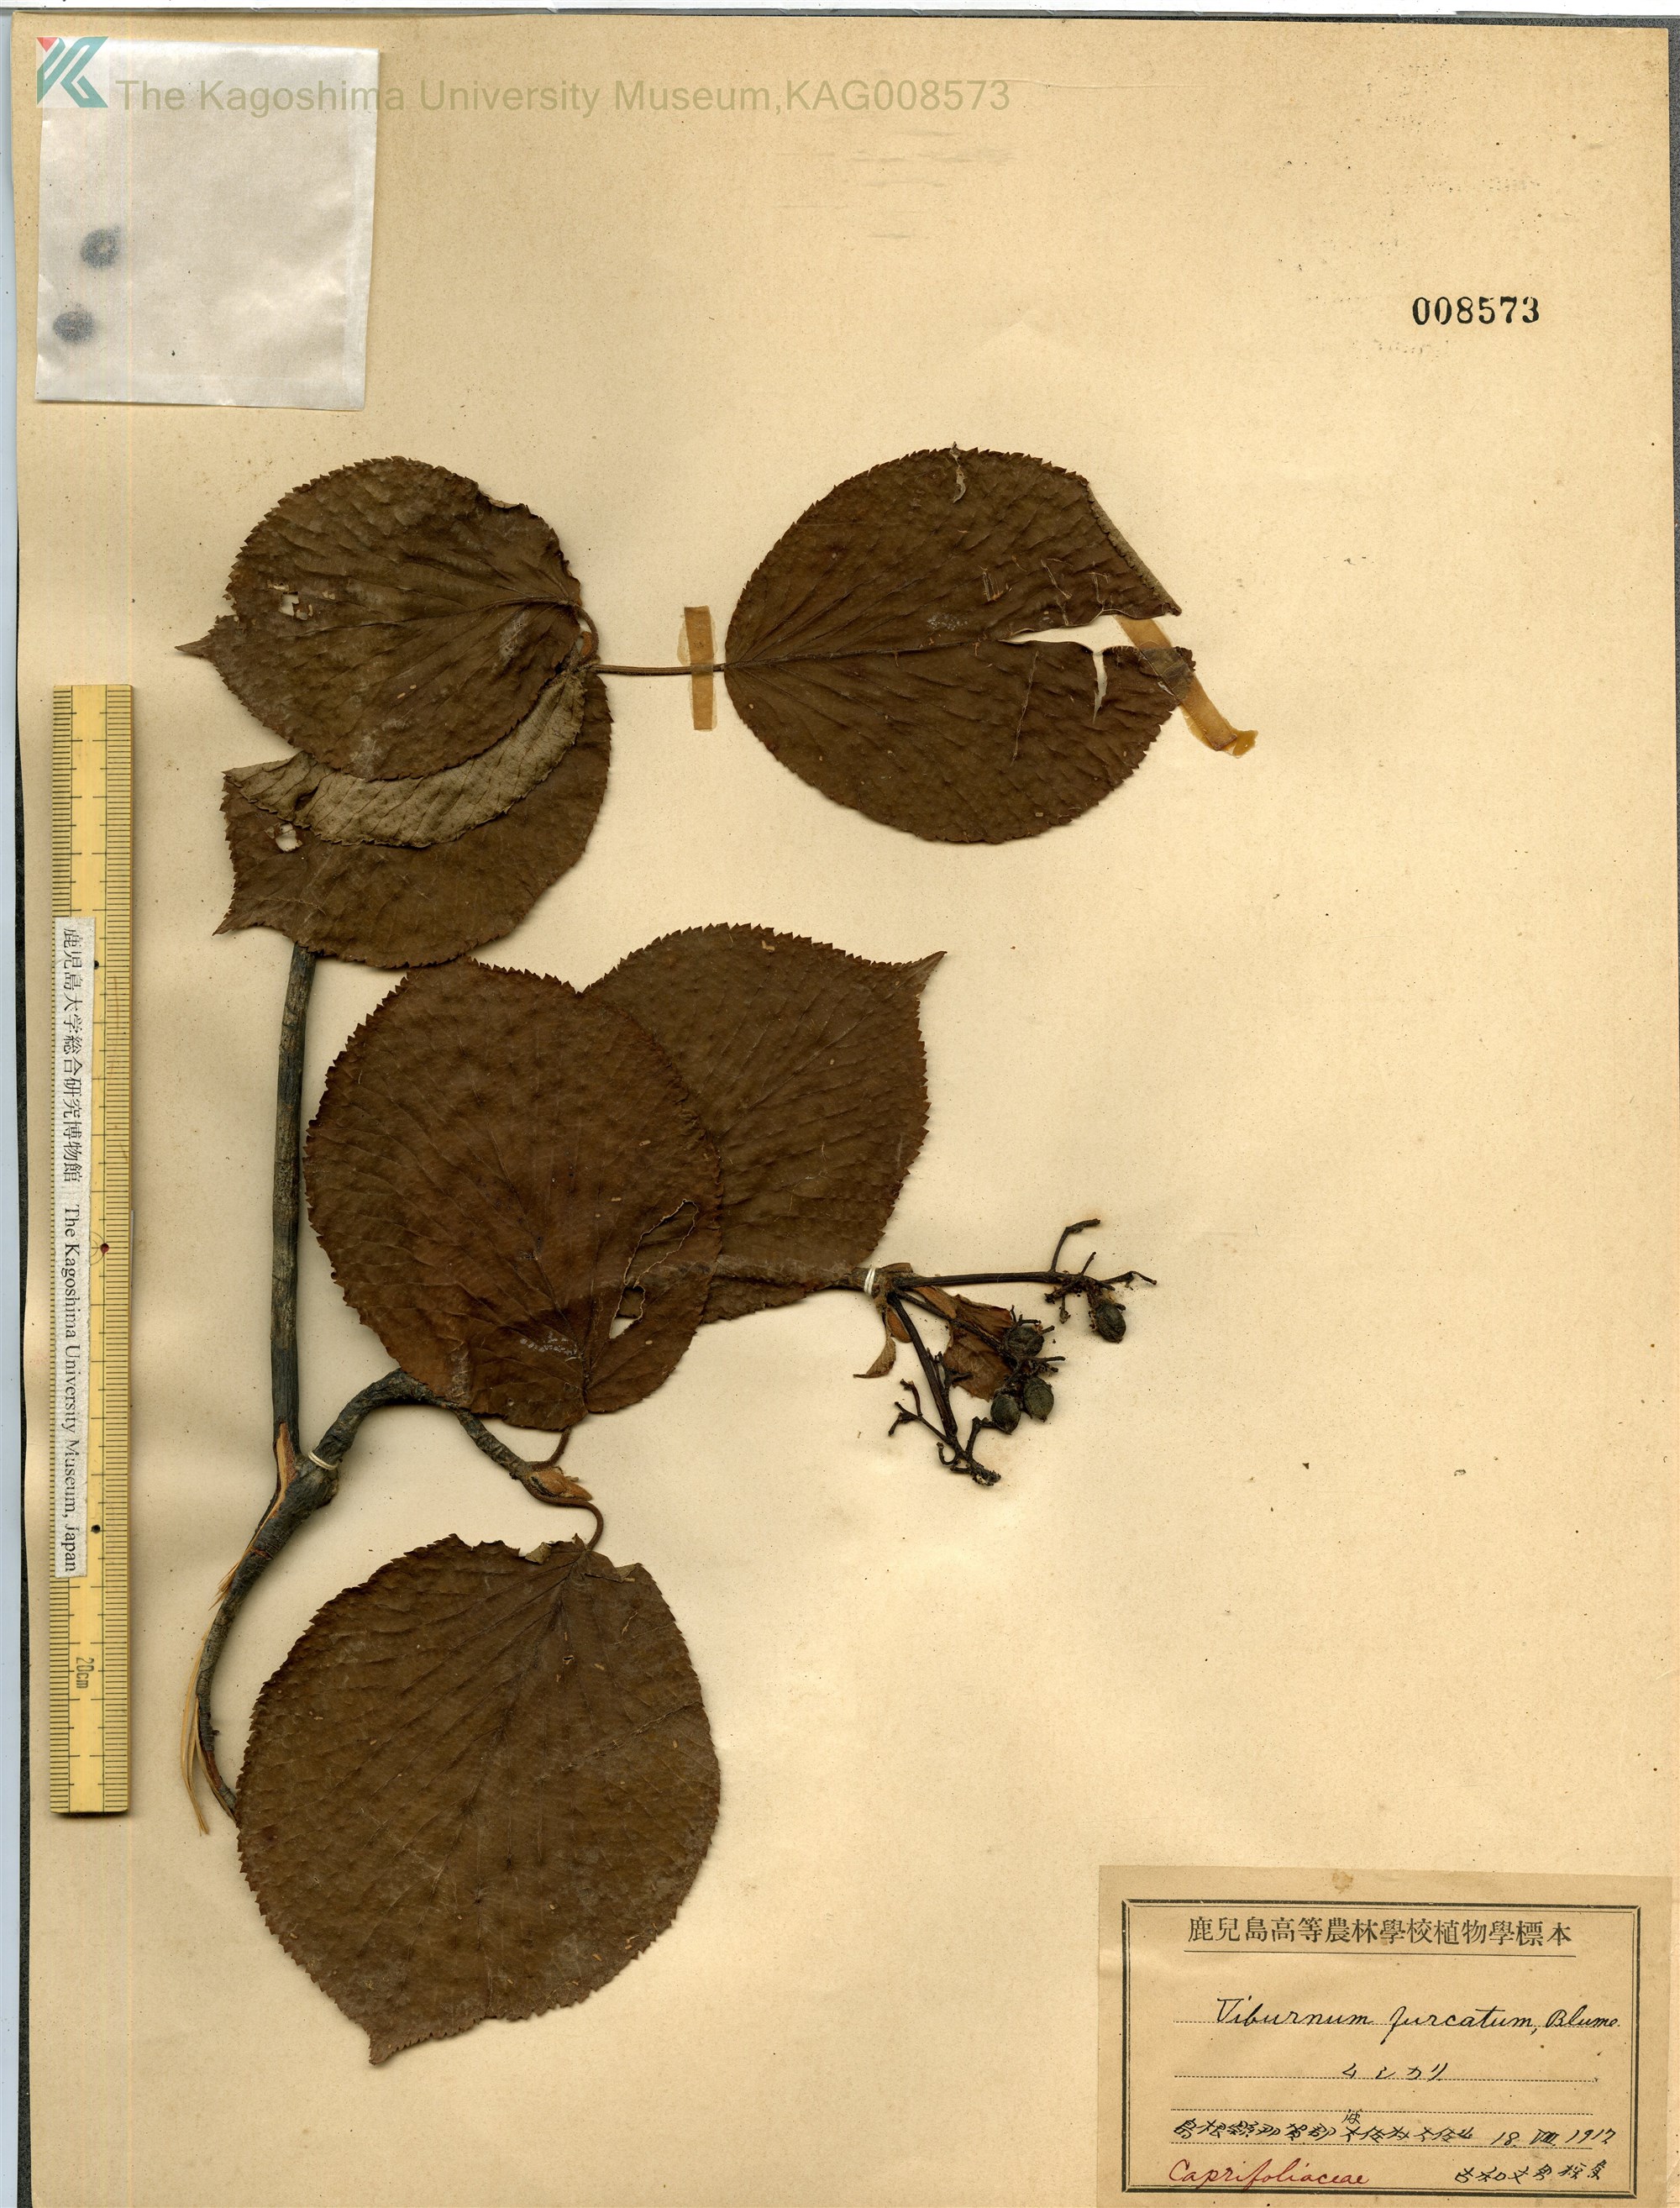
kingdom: Plantae
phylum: Tracheophyta
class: Magnoliopsida
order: Dipsacales
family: Viburnaceae
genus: Viburnum
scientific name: Viburnum furcatum
